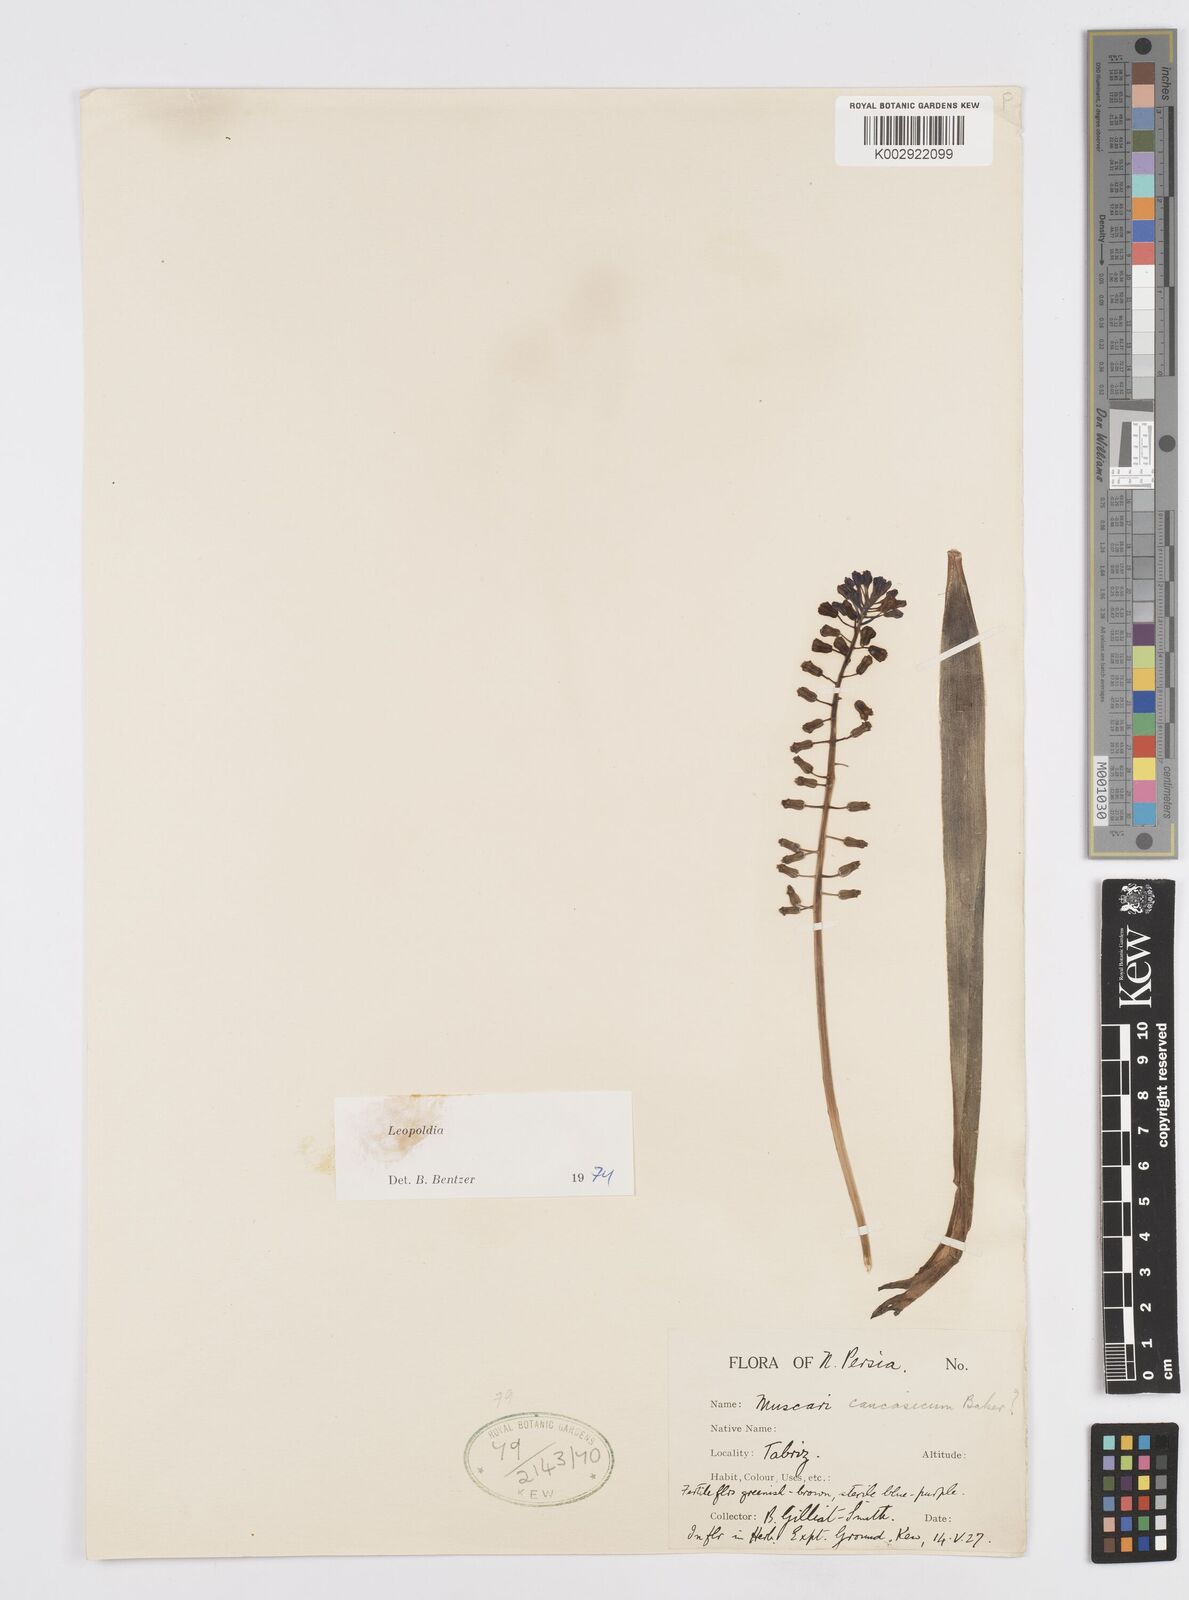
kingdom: Plantae
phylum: Tracheophyta
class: Liliopsida
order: Asparagales
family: Asparagaceae
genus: Muscari
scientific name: Muscari caucasicum
